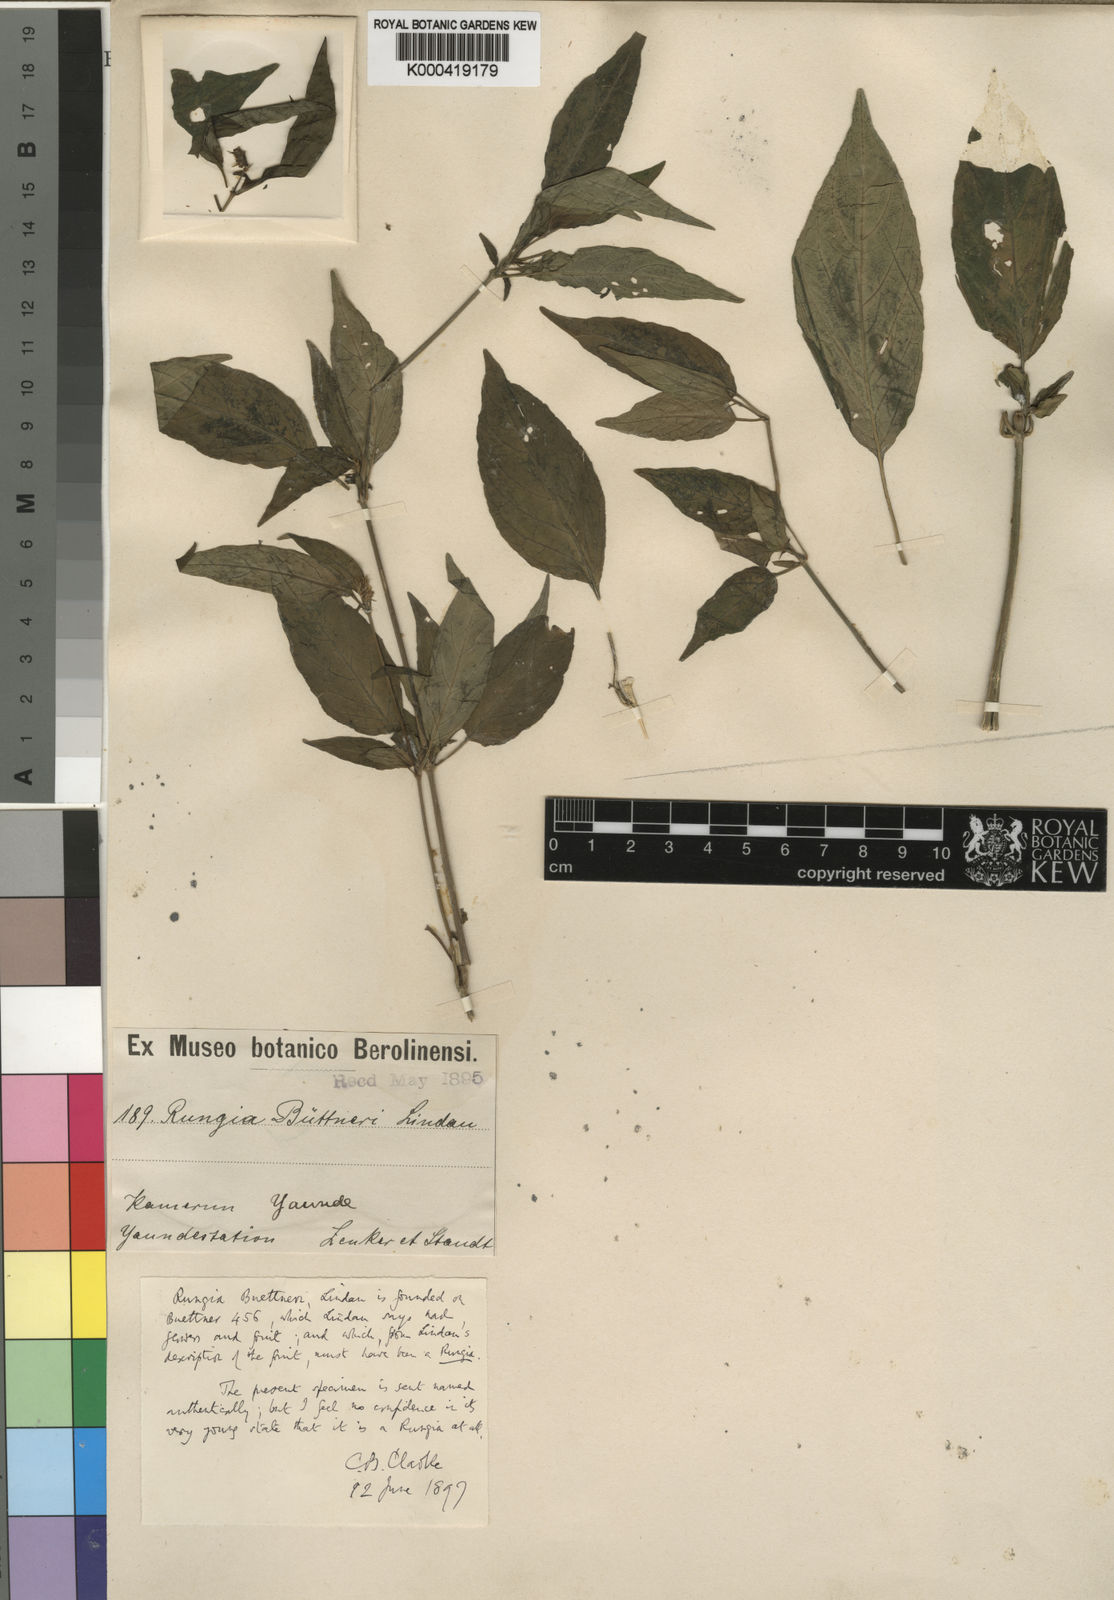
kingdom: Plantae
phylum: Tracheophyta
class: Magnoliopsida
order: Lamiales
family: Acanthaceae
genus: Justicia
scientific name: Justicia camerunensis
